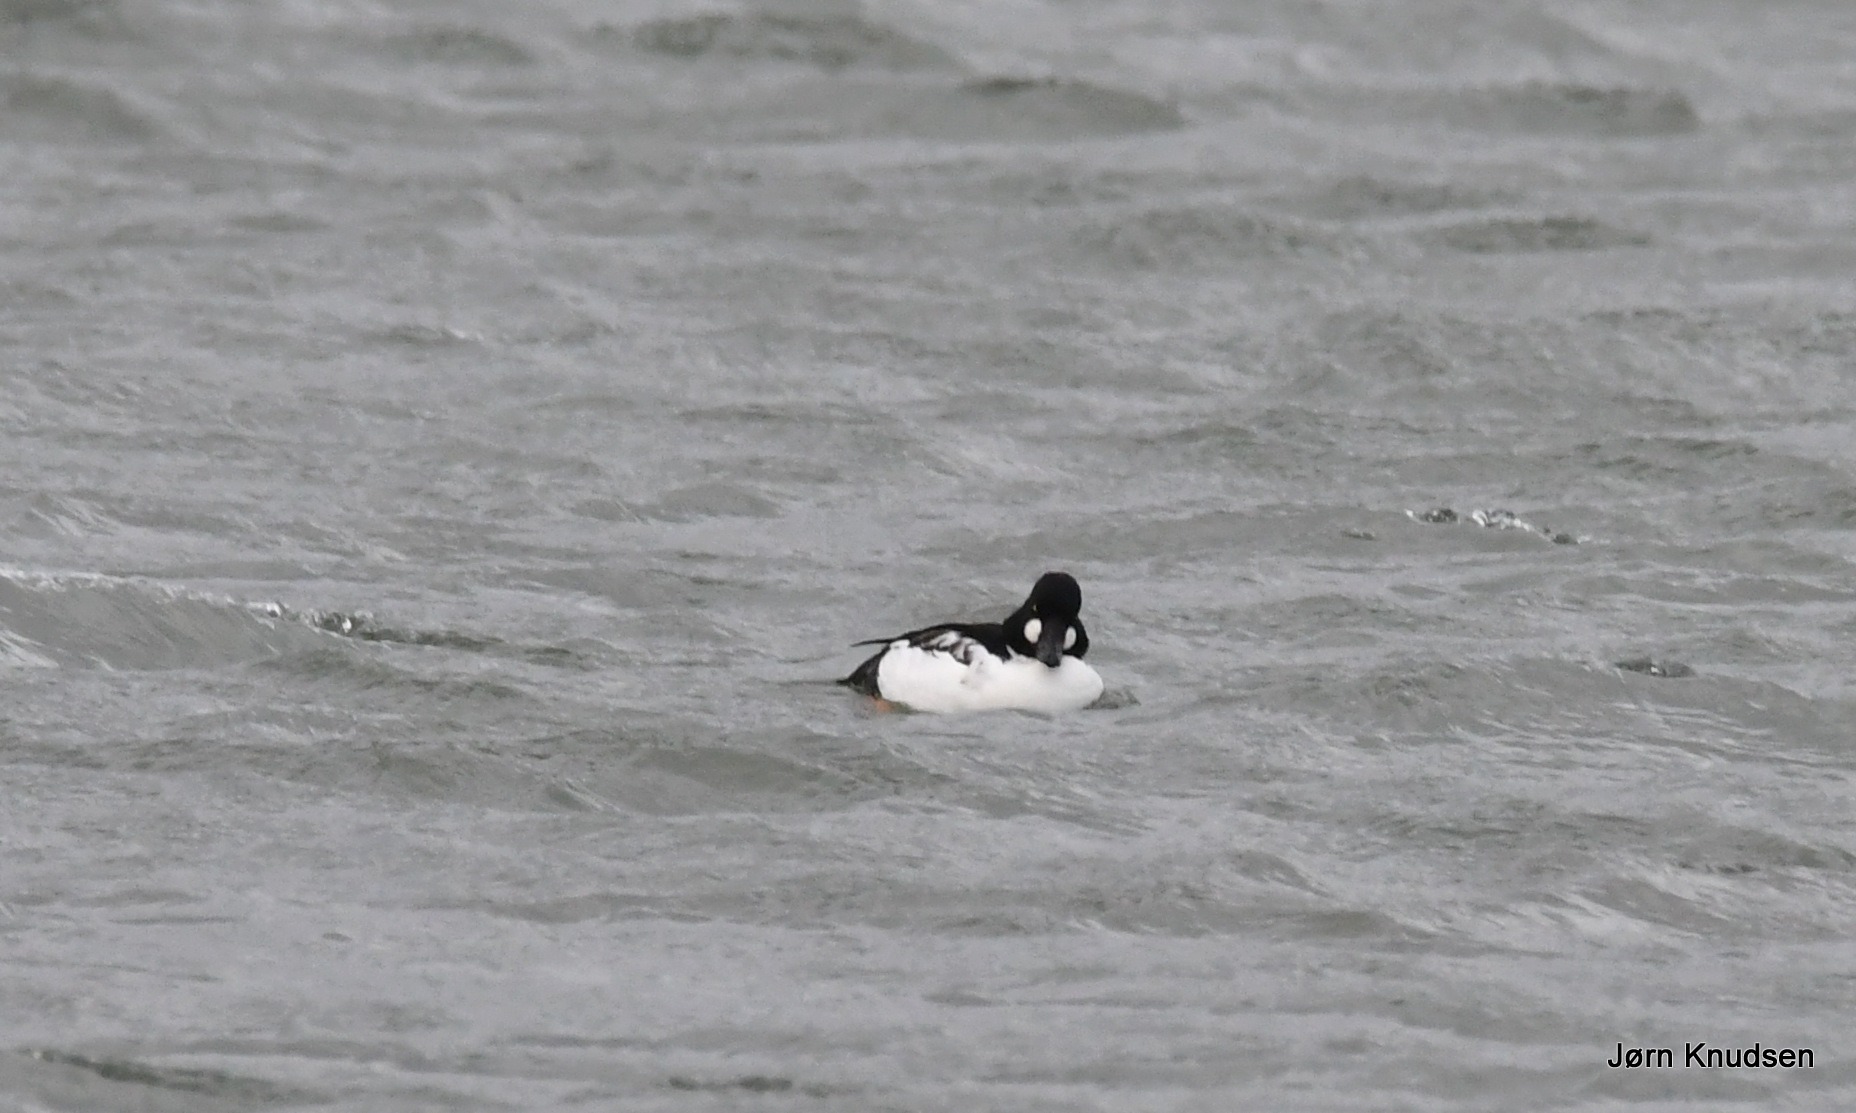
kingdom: Animalia
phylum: Chordata
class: Aves
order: Anseriformes
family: Anatidae
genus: Bucephala
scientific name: Bucephala clangula
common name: Hvinand
